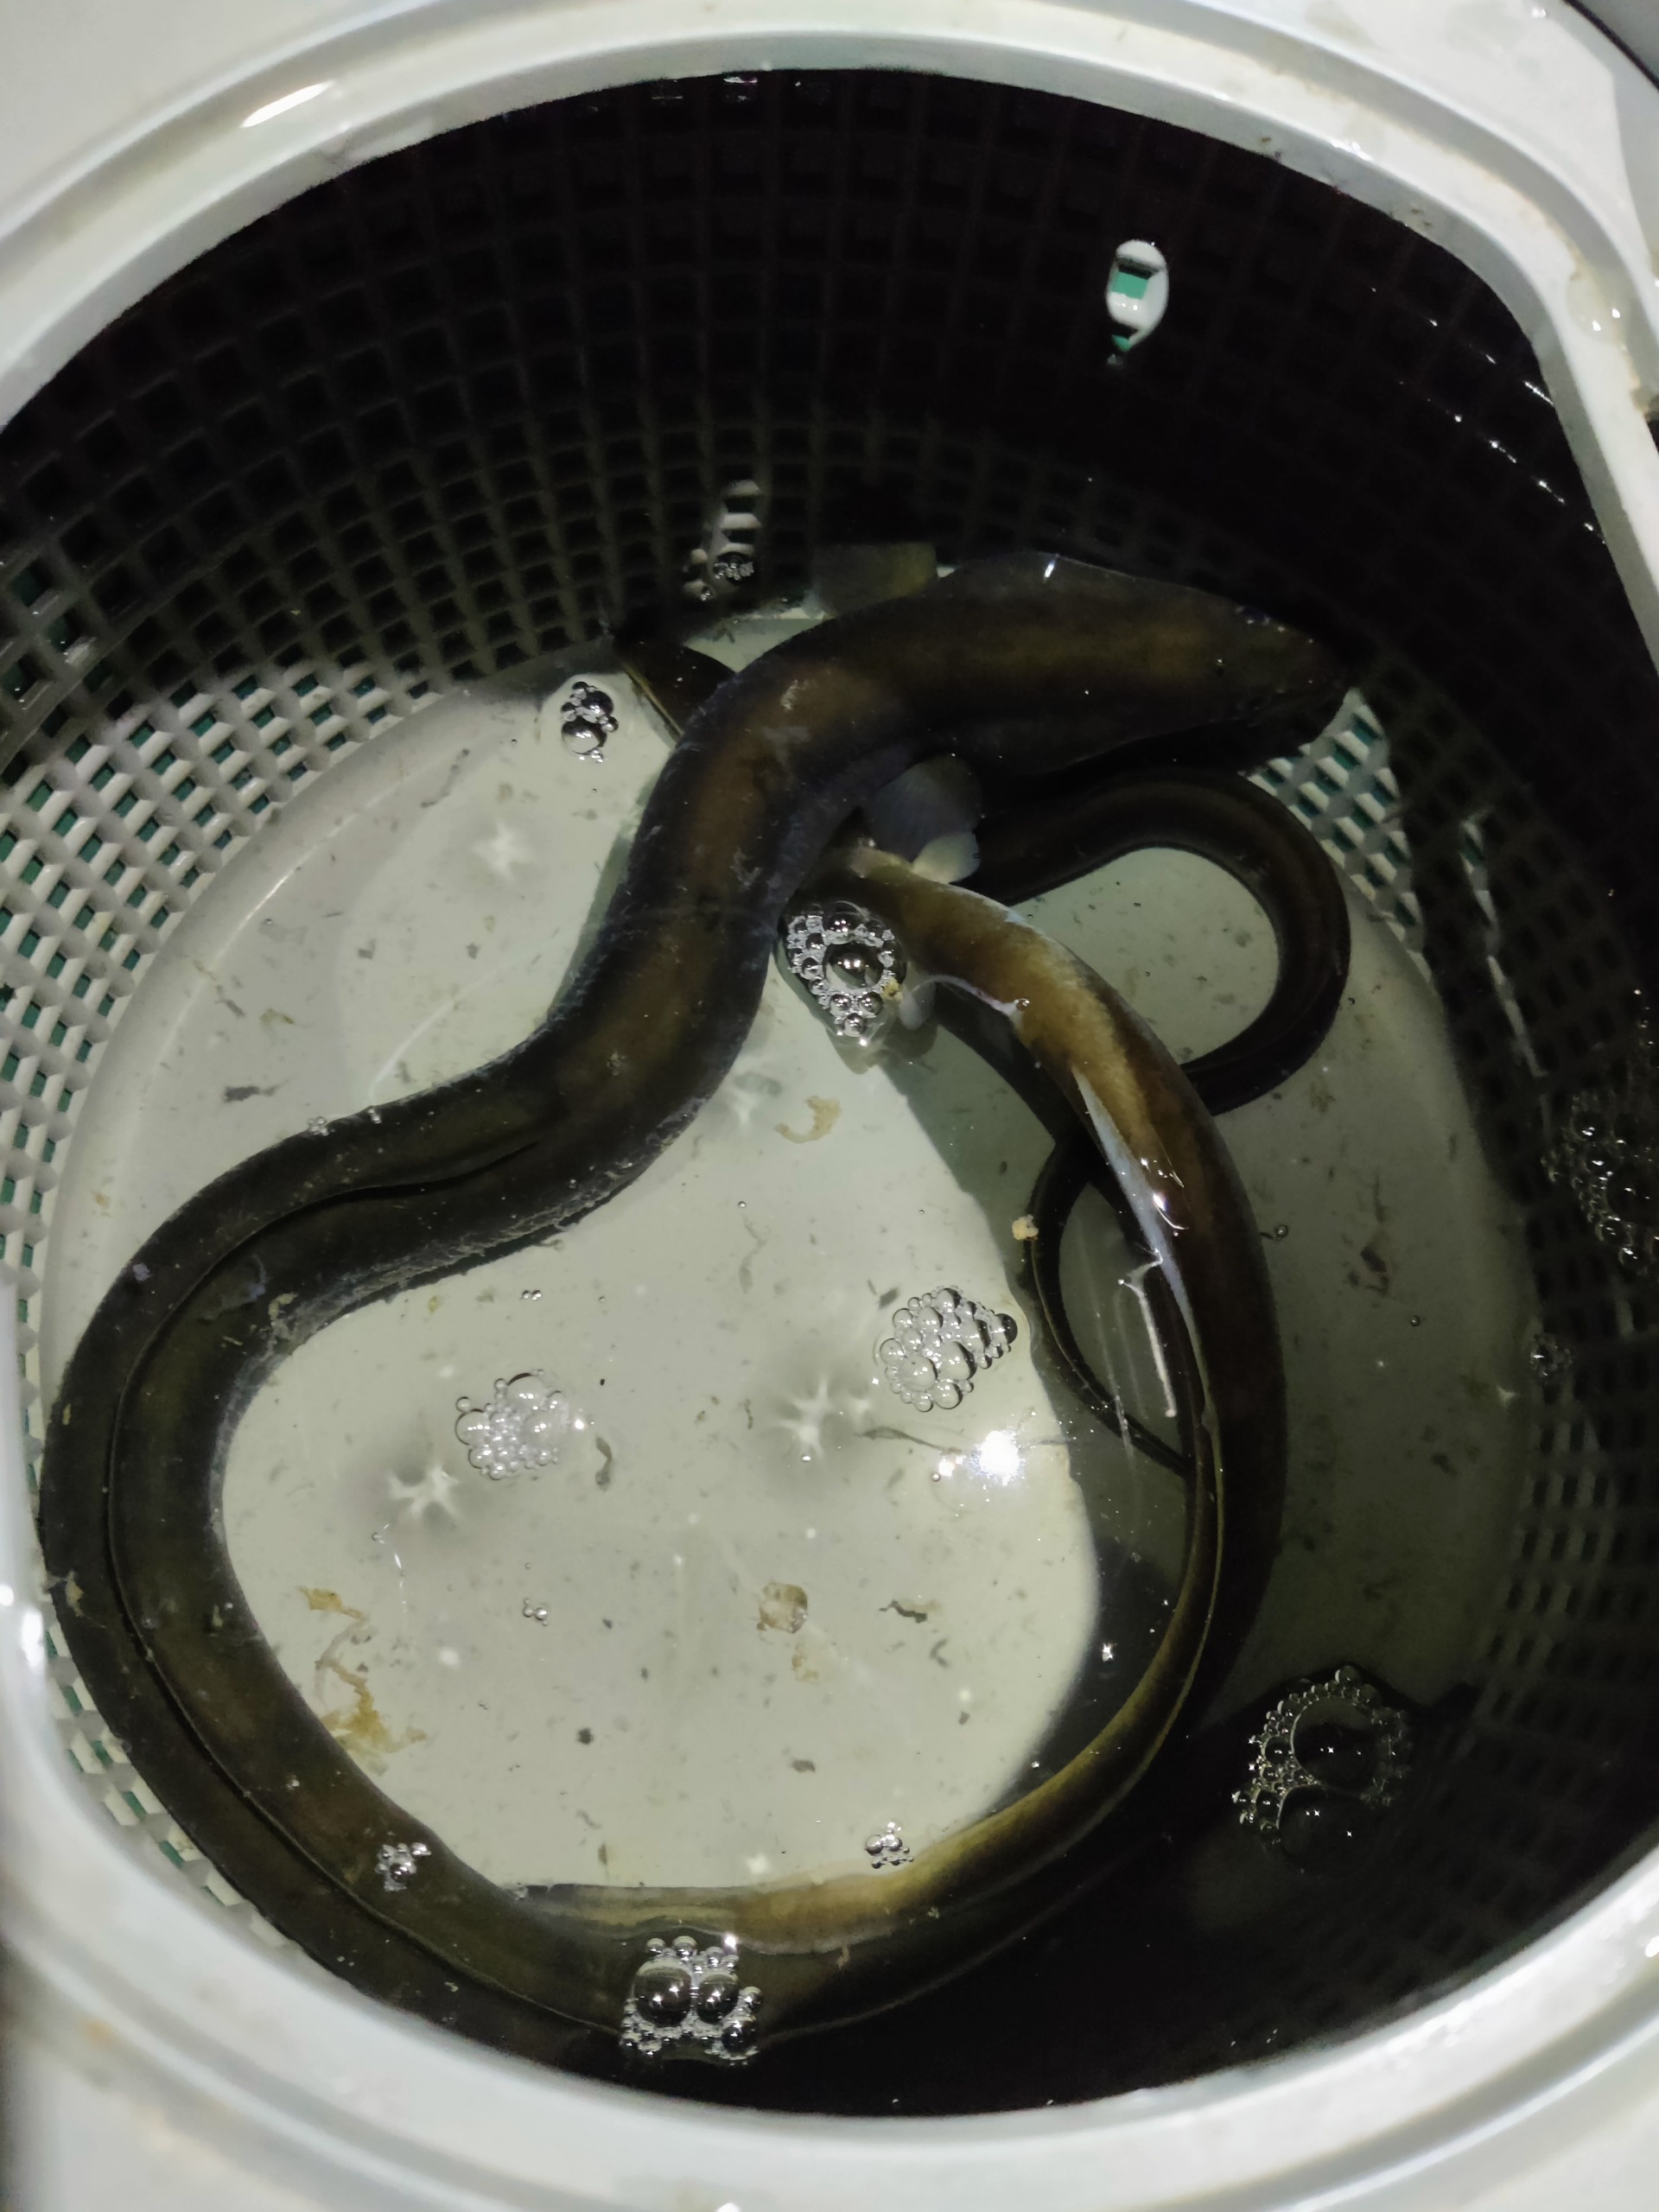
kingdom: Animalia
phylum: Chordata
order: Anguilliformes
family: Anguillidae
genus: Anguilla
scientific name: Anguilla anguilla
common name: Europæisk ål
